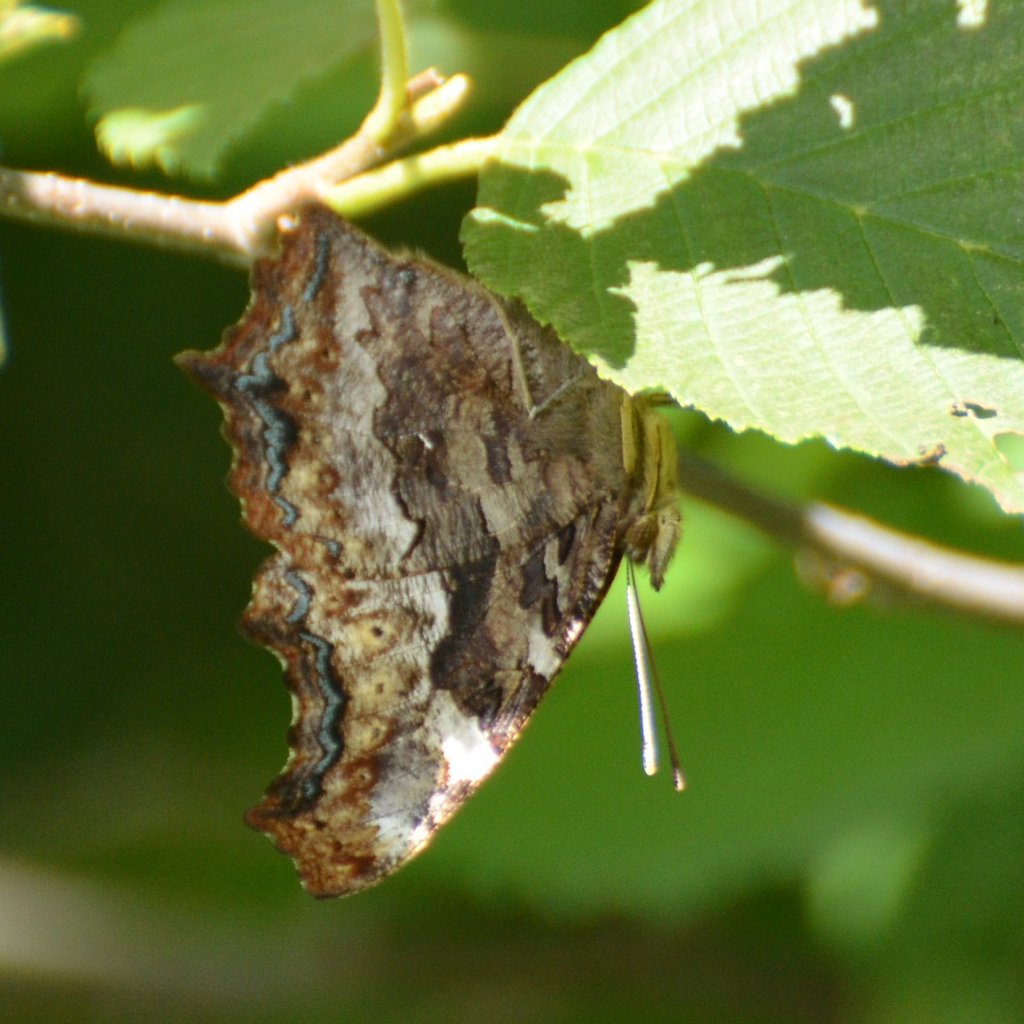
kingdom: Animalia
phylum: Arthropoda
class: Insecta
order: Lepidoptera
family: Nymphalidae
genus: Polygonia
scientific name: Polygonia vaualbum
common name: Compton Tortoiseshell
